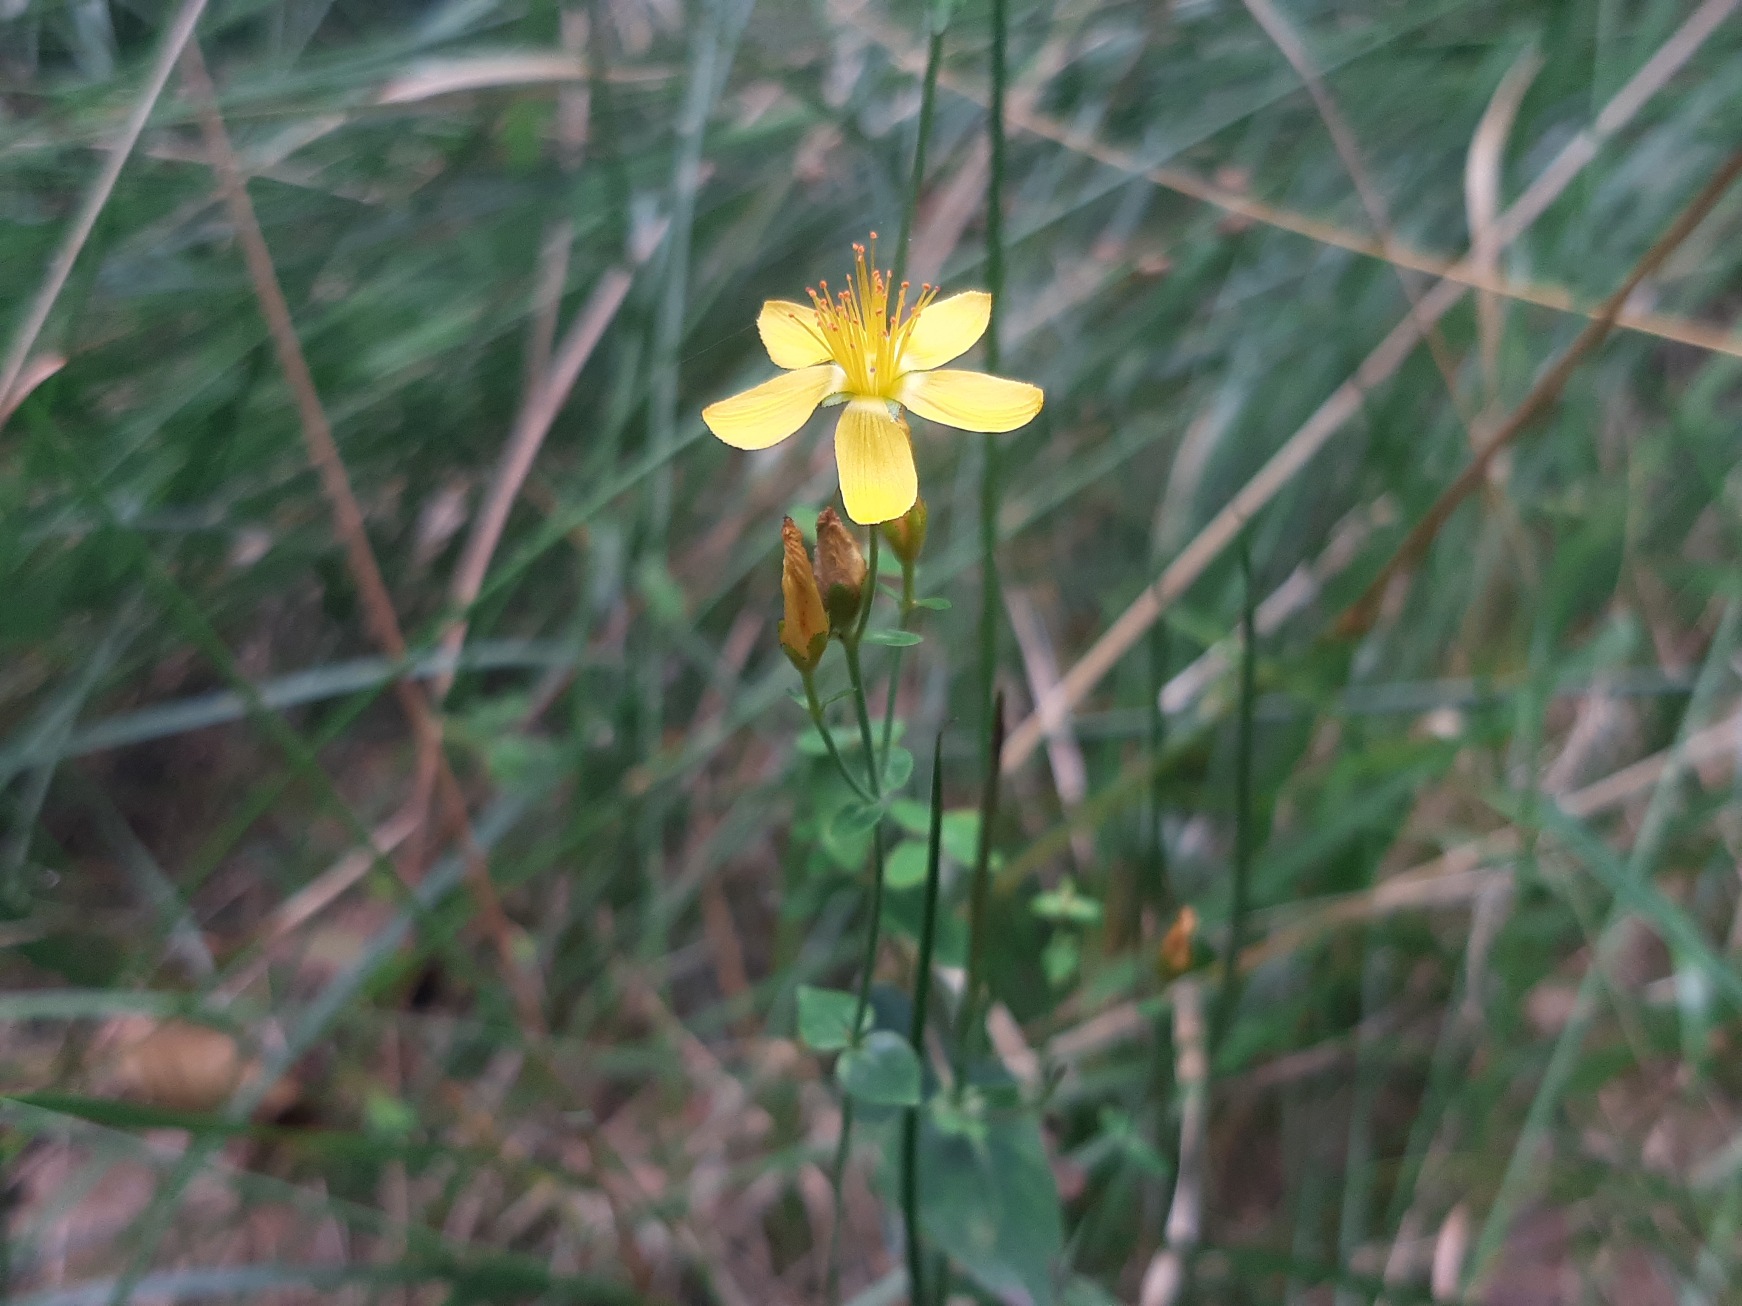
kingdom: Plantae
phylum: Tracheophyta
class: Magnoliopsida
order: Malpighiales
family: Hypericaceae
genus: Hypericum
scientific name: Hypericum pulchrum
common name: Smuk perikon
